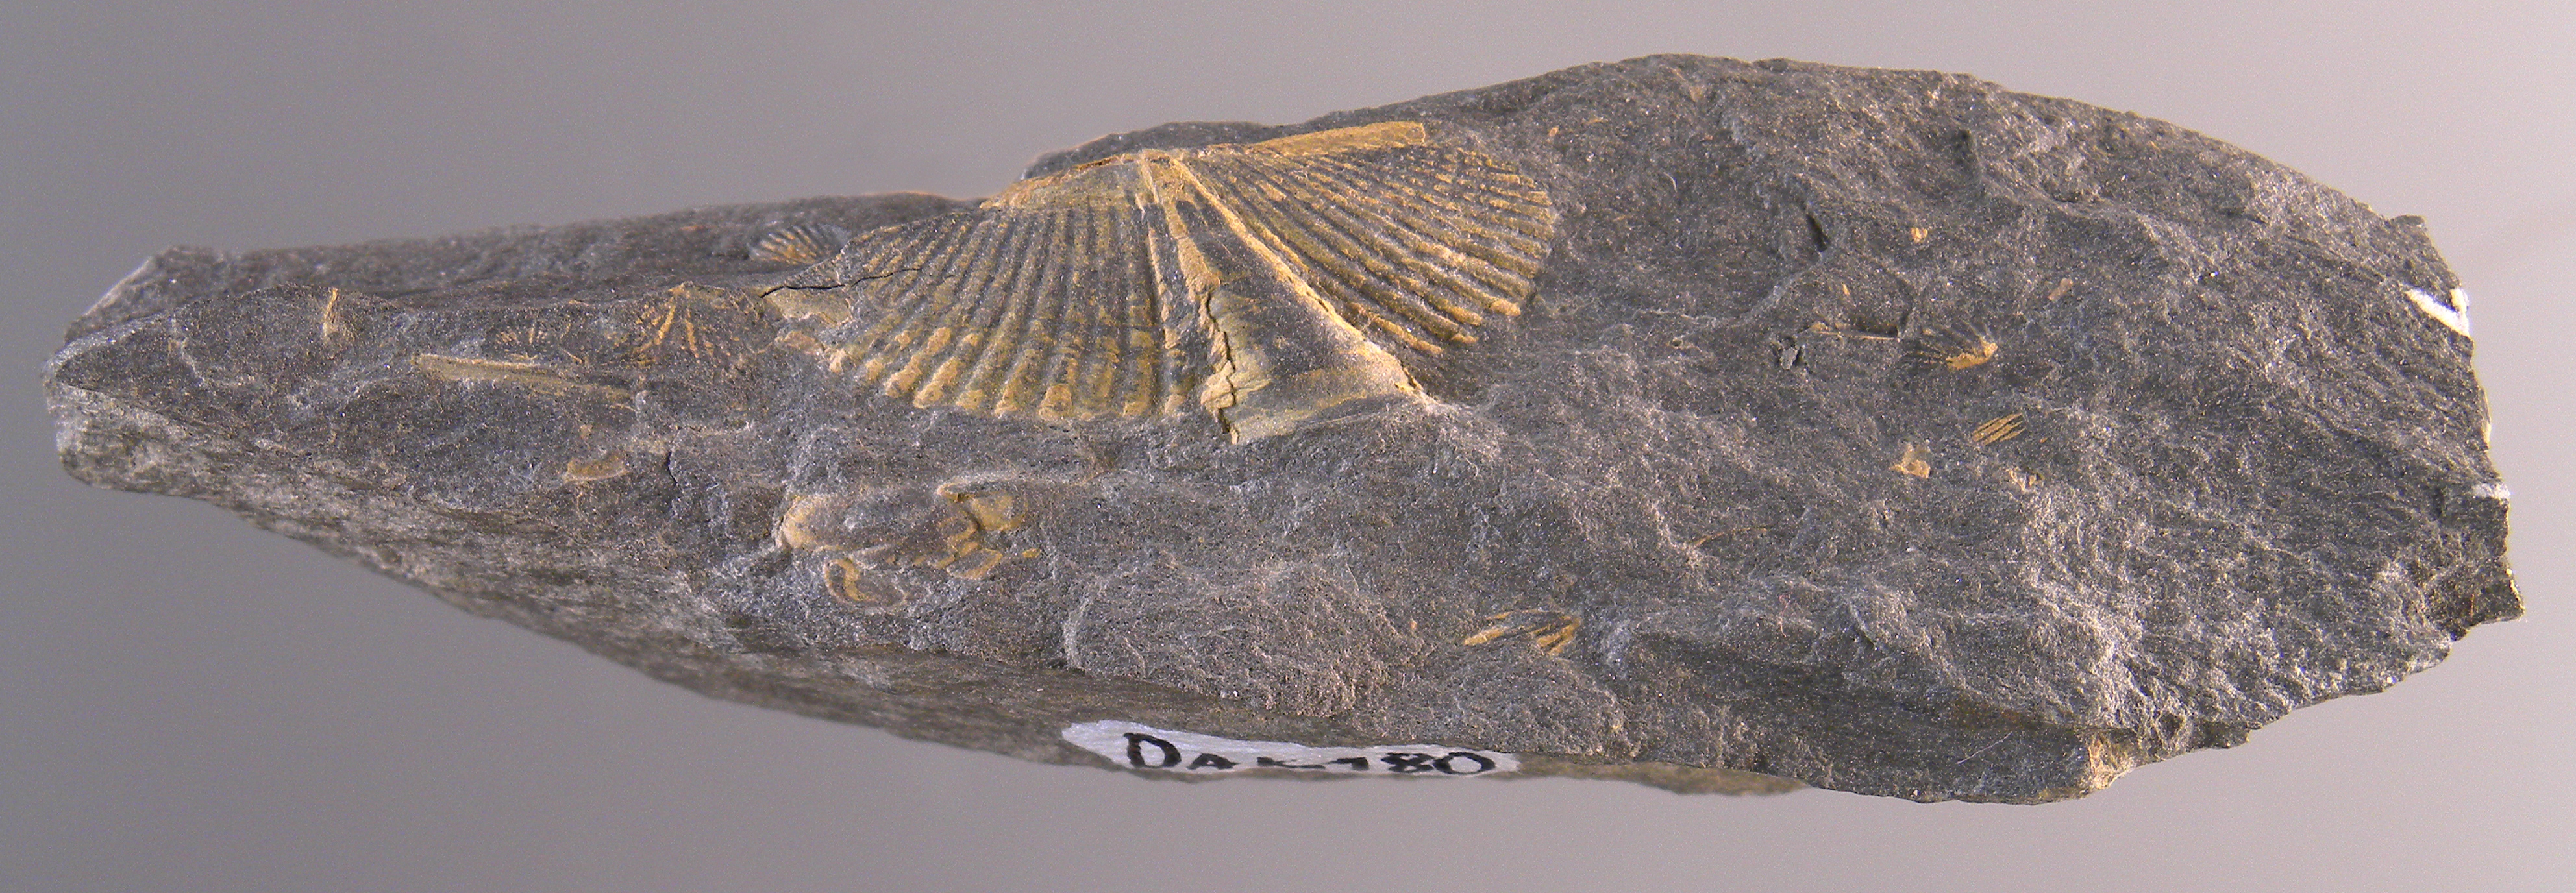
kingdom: Animalia
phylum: Arthropoda
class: Trilobita
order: Phacopida
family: Acastidae
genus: Acastava
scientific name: Acastava
